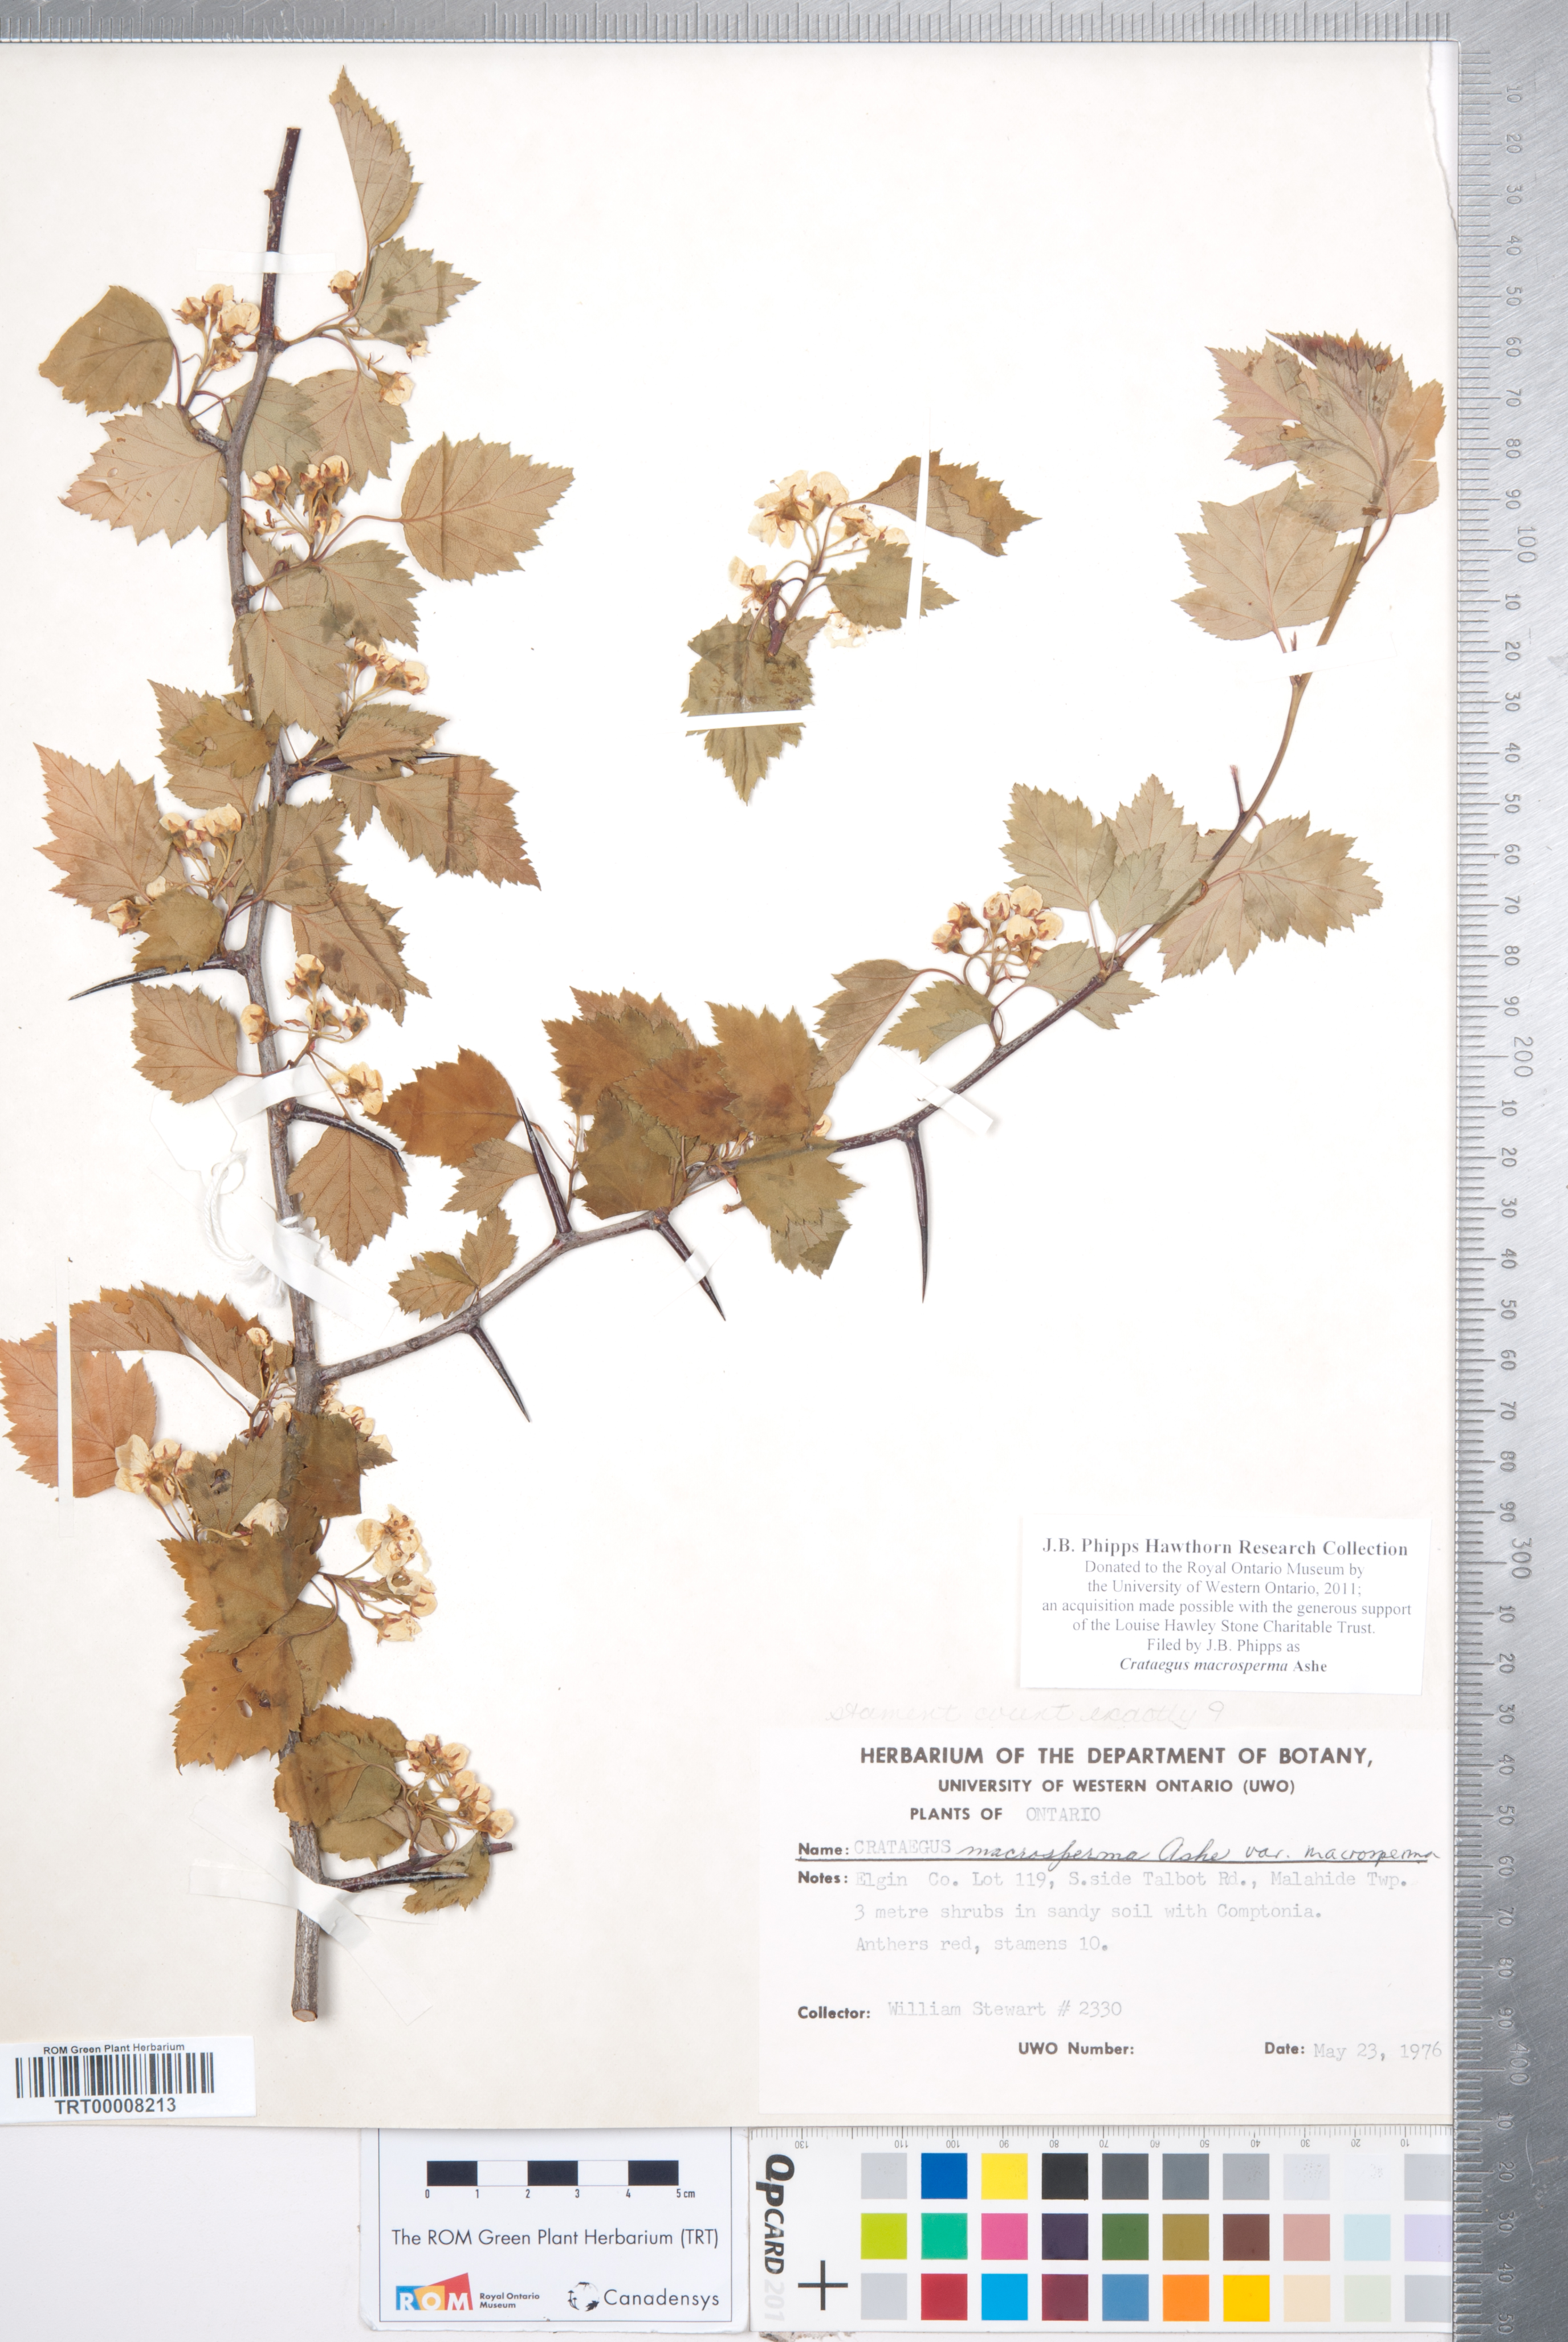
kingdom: Plantae
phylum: Tracheophyta
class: Magnoliopsida
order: Rosales
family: Rosaceae
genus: Crataegus
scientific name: Crataegus macrosperma
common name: Variable hawthorn
